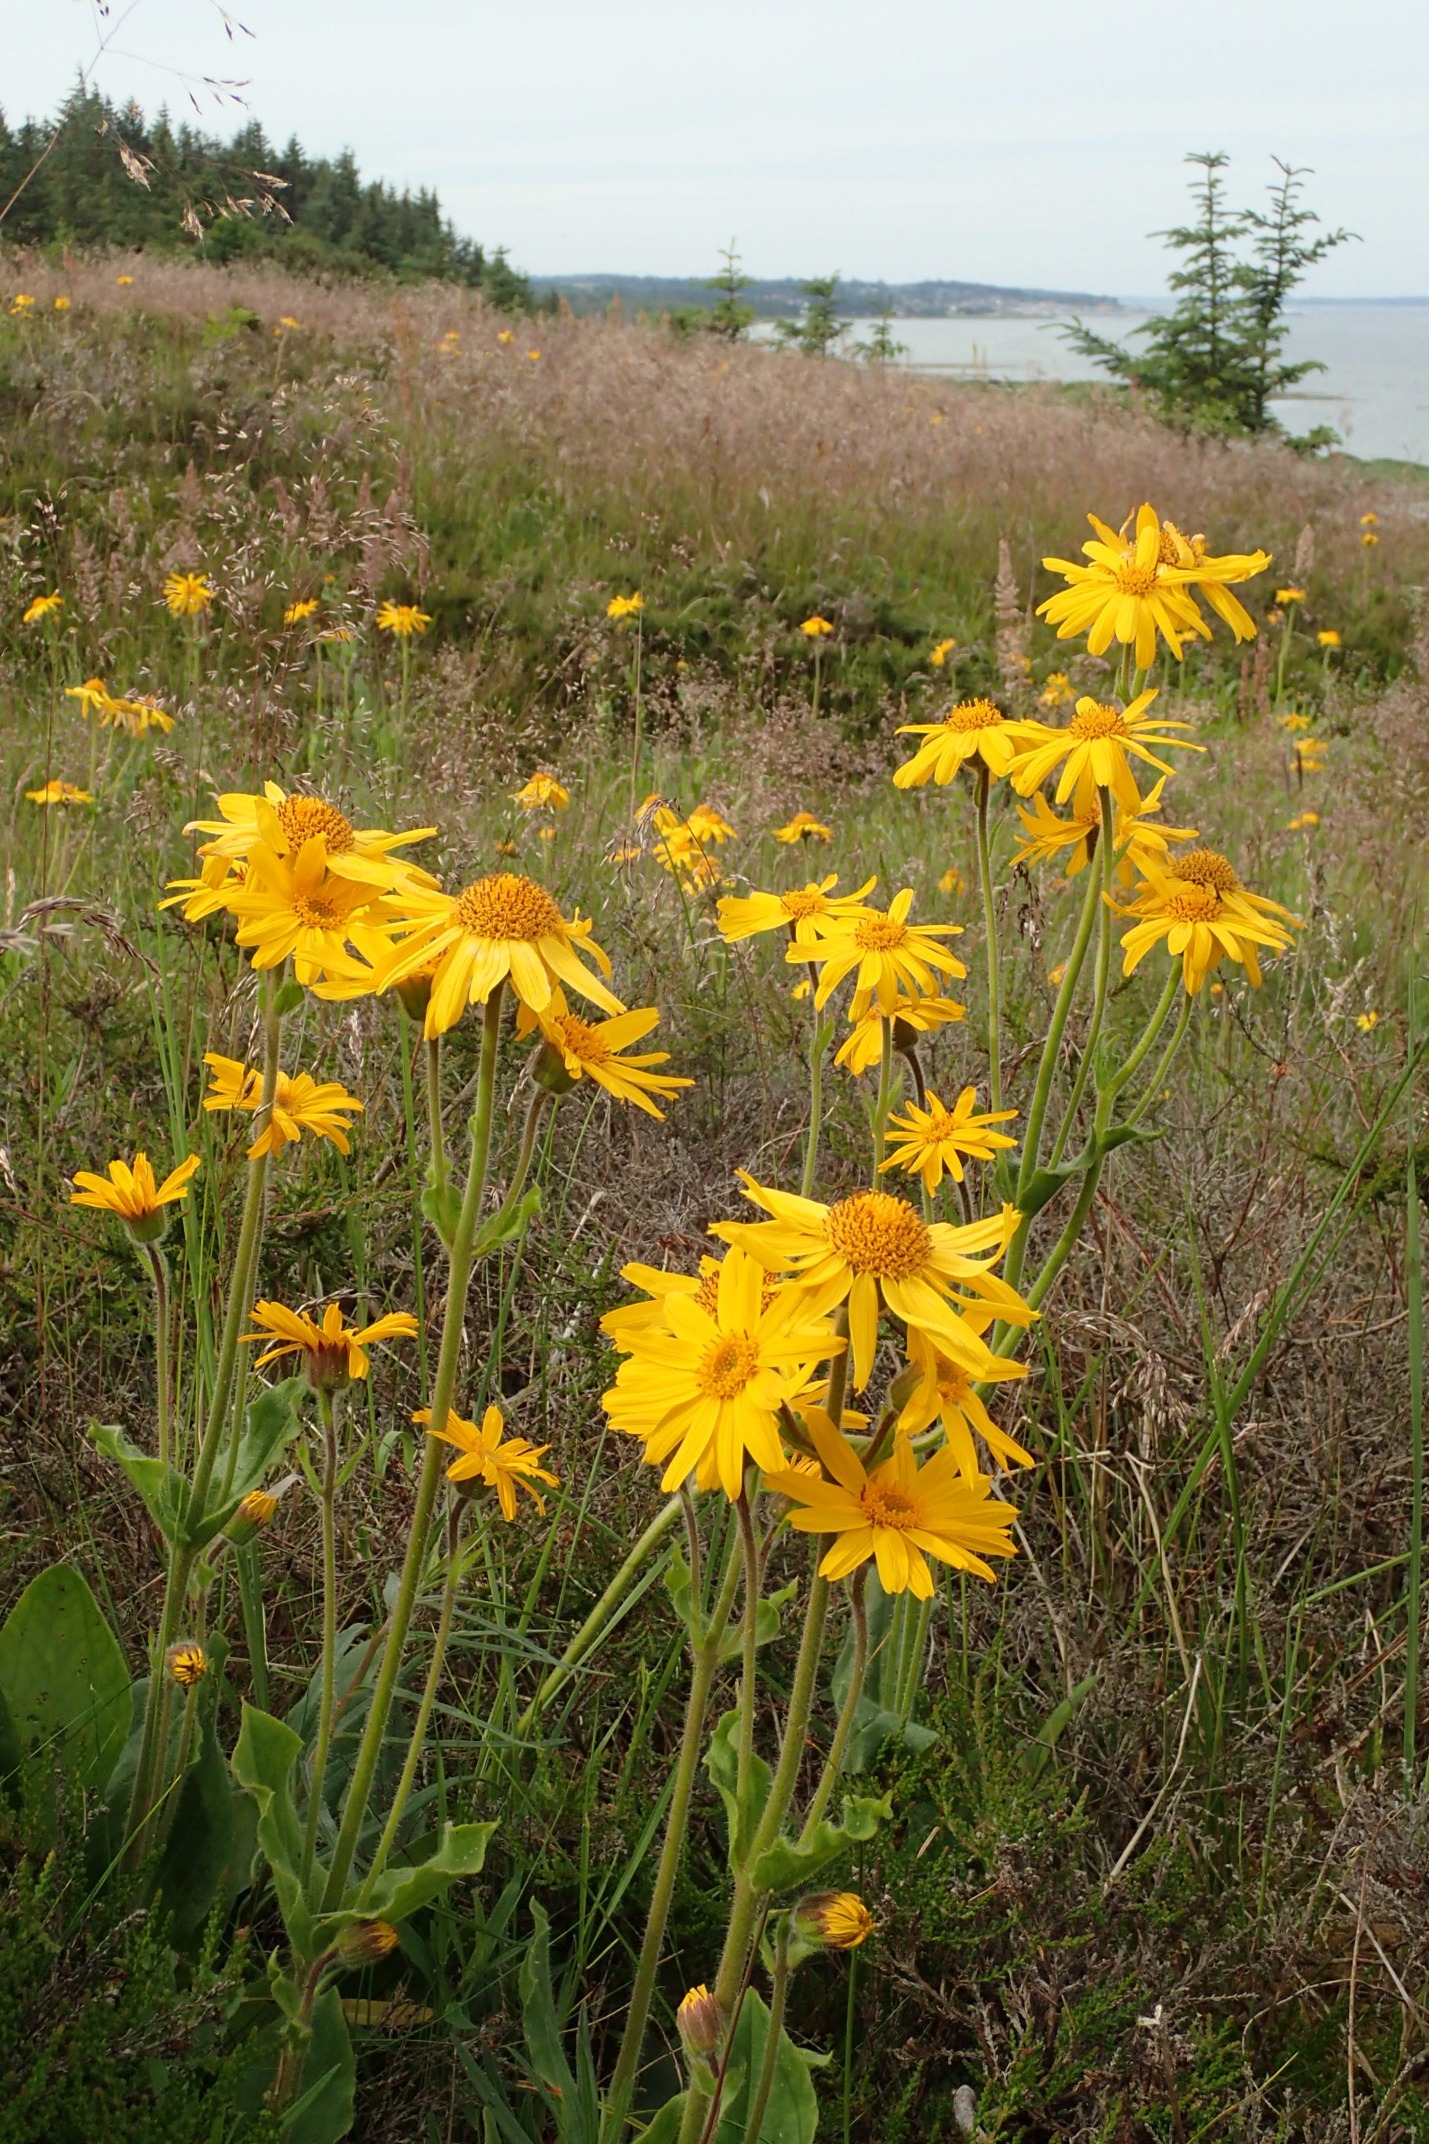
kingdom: Plantae
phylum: Tracheophyta
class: Magnoliopsida
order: Asterales
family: Asteraceae
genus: Arnica
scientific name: Arnica montana
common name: Guldblomme
